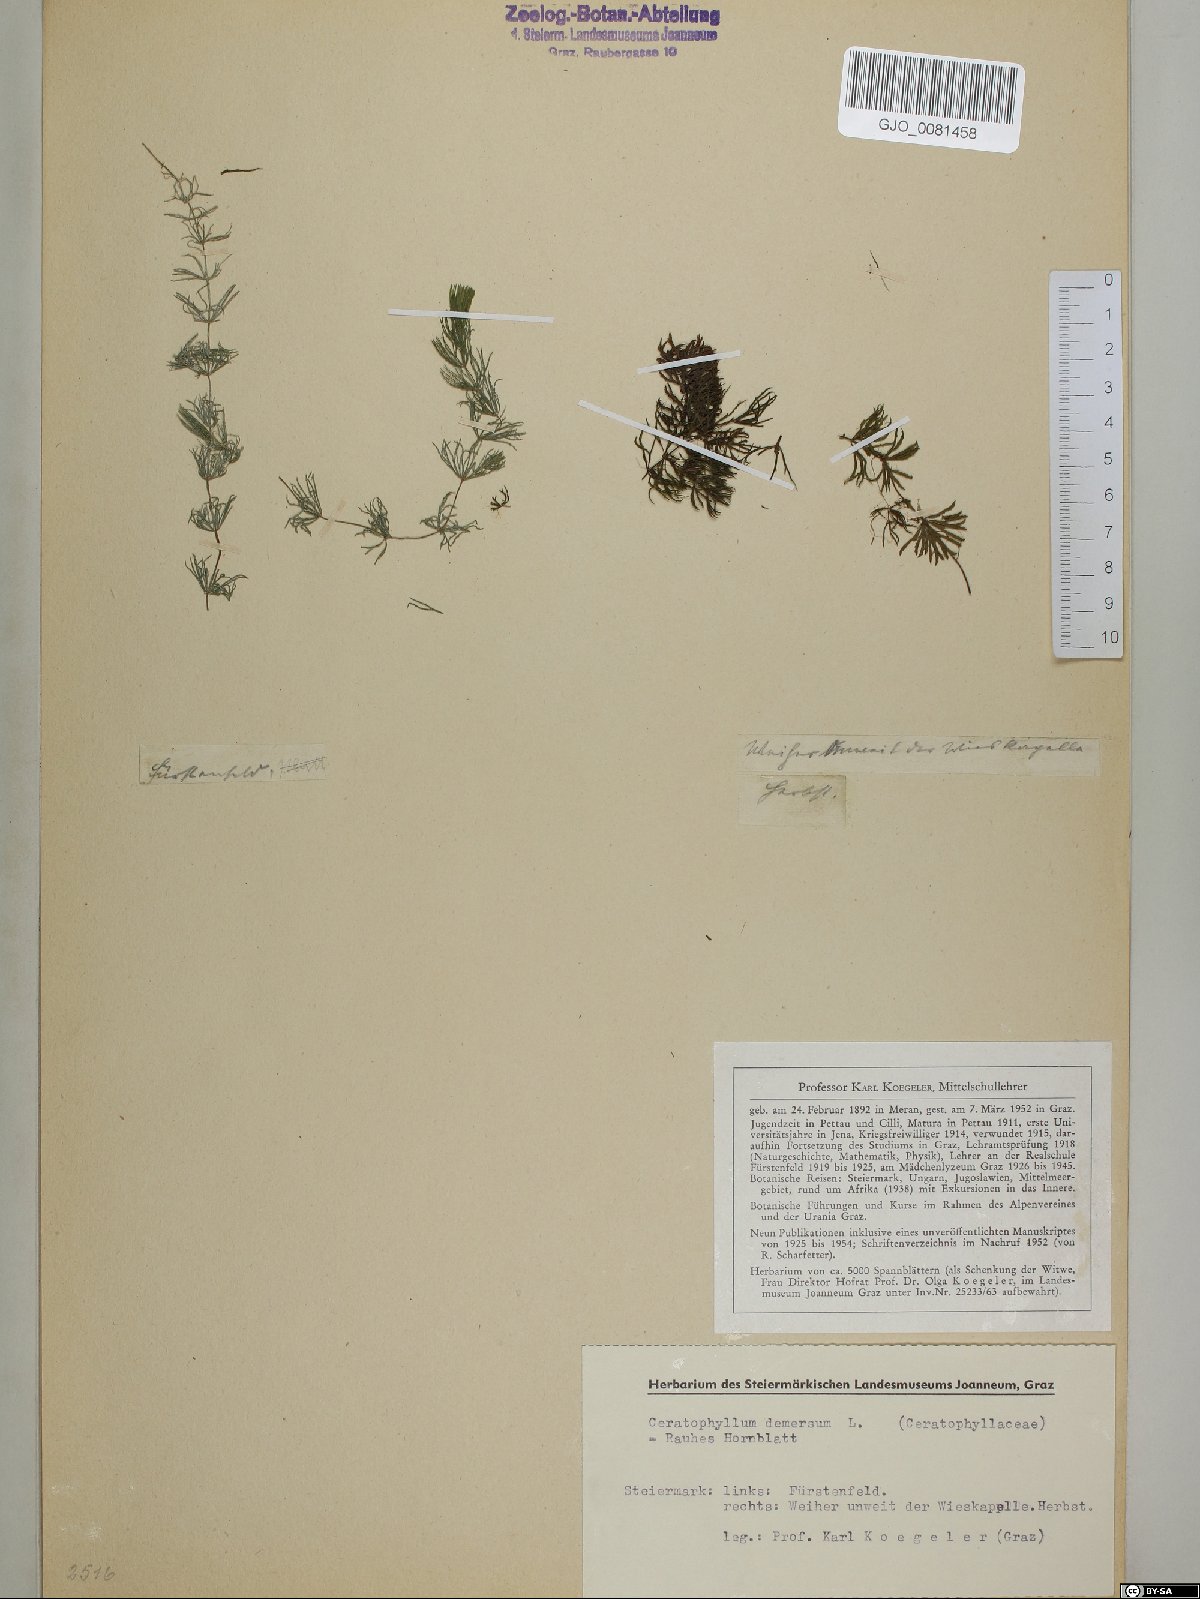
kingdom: Plantae
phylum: Tracheophyta
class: Magnoliopsida
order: Ceratophyllales
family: Ceratophyllaceae
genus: Ceratophyllum
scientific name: Ceratophyllum demersum
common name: Rigid hornwort
